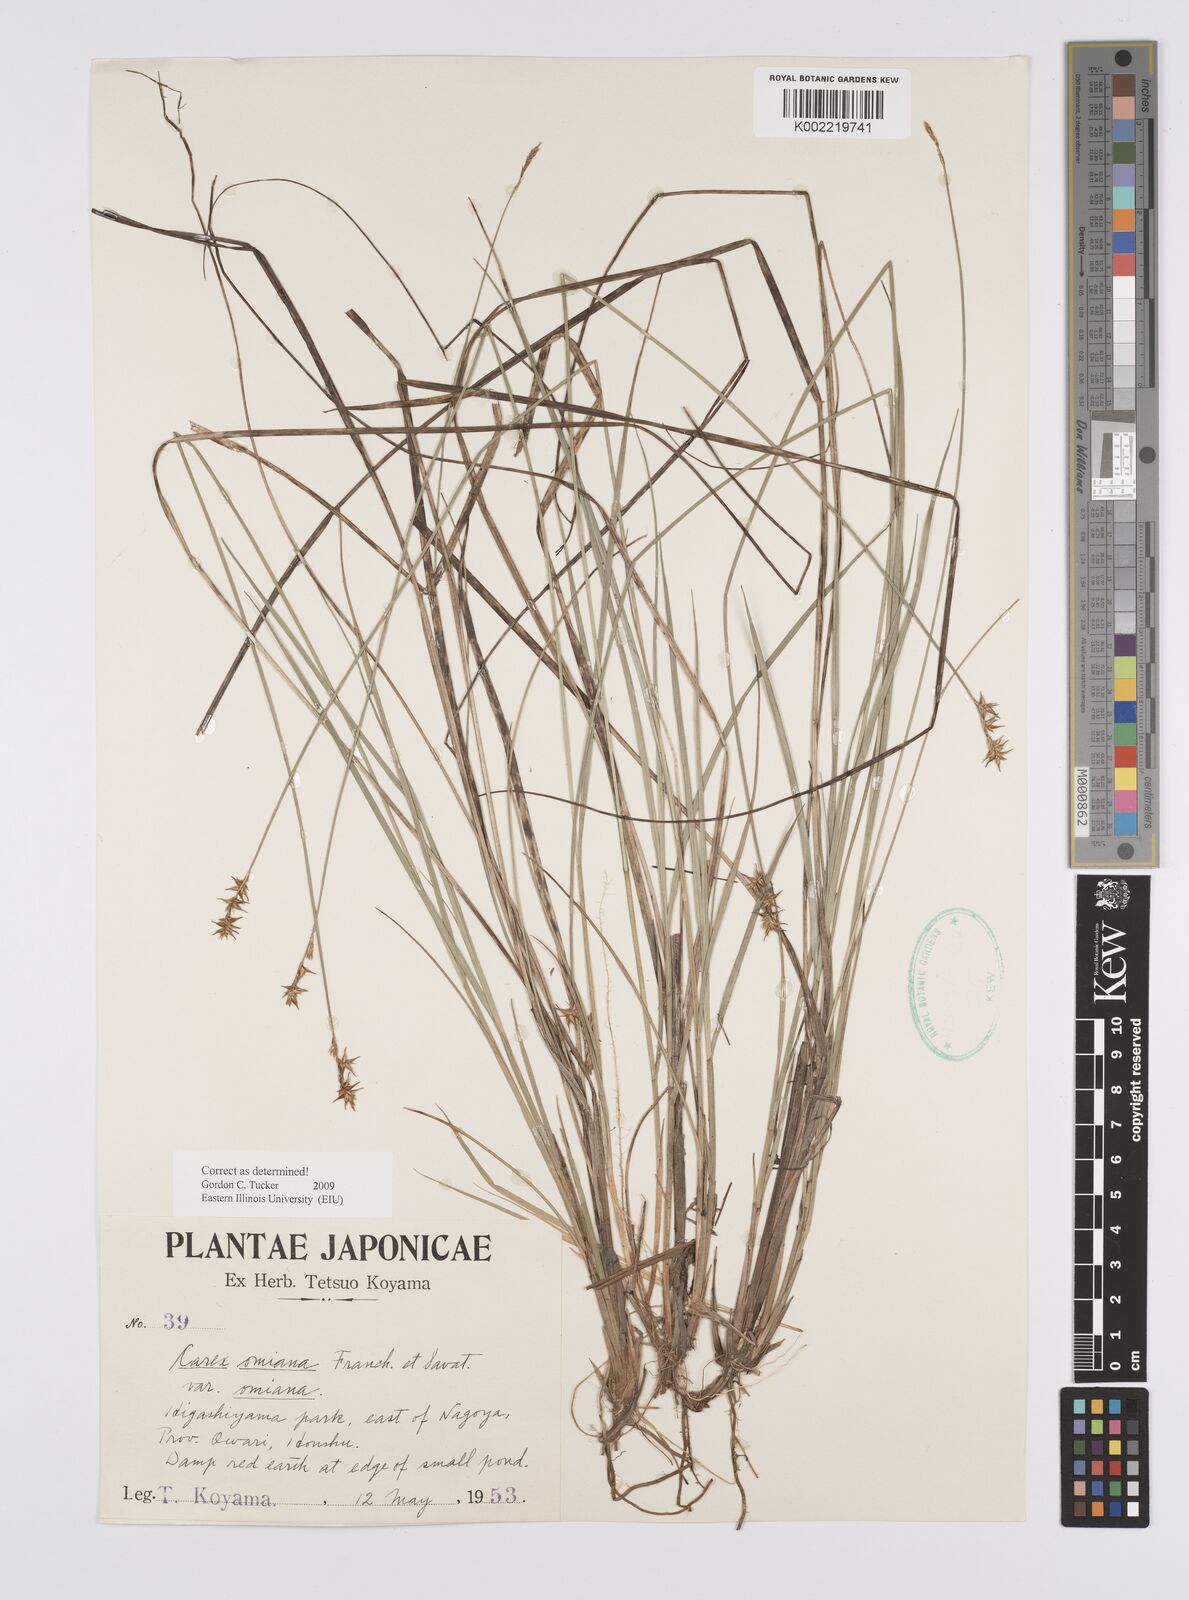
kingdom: Plantae
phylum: Tracheophyta
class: Liliopsida
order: Poales
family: Cyperaceae
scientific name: Cyperaceae
